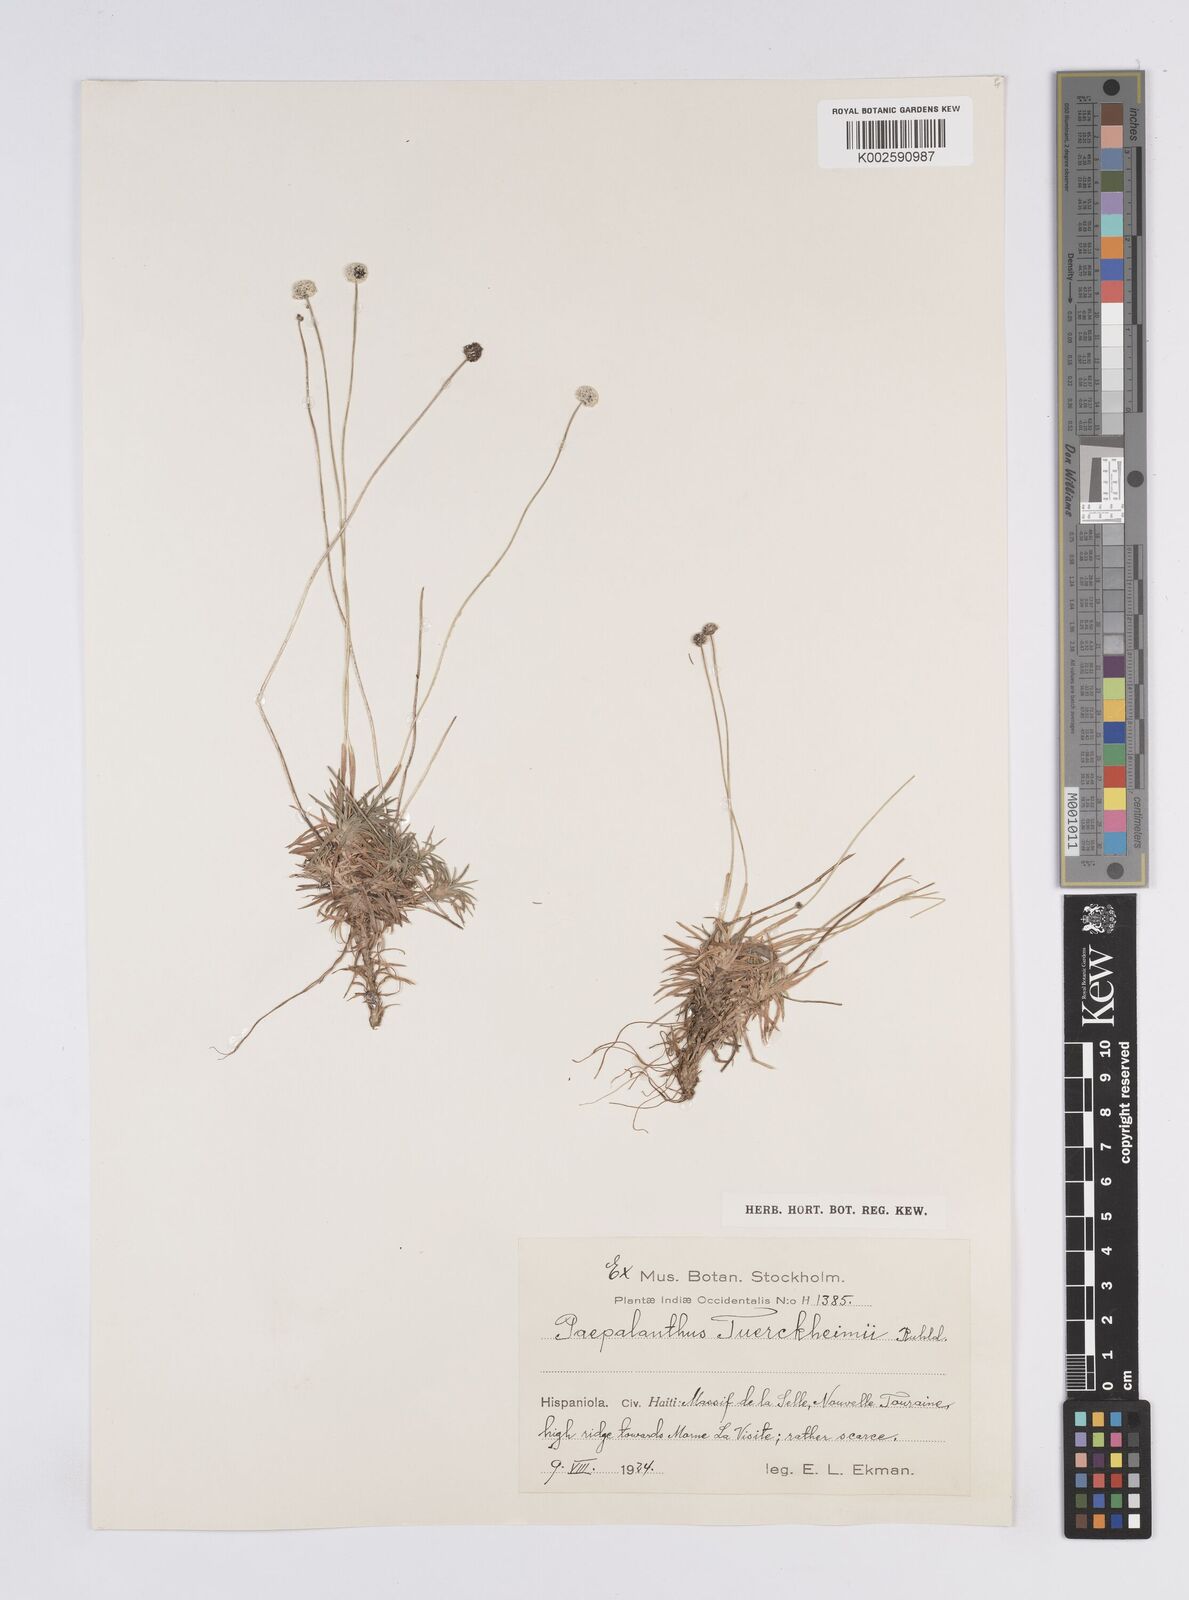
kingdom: Plantae
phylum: Tracheophyta
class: Liliopsida
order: Poales
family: Eriocaulaceae
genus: Paepalanthus
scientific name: Paepalanthus repens
